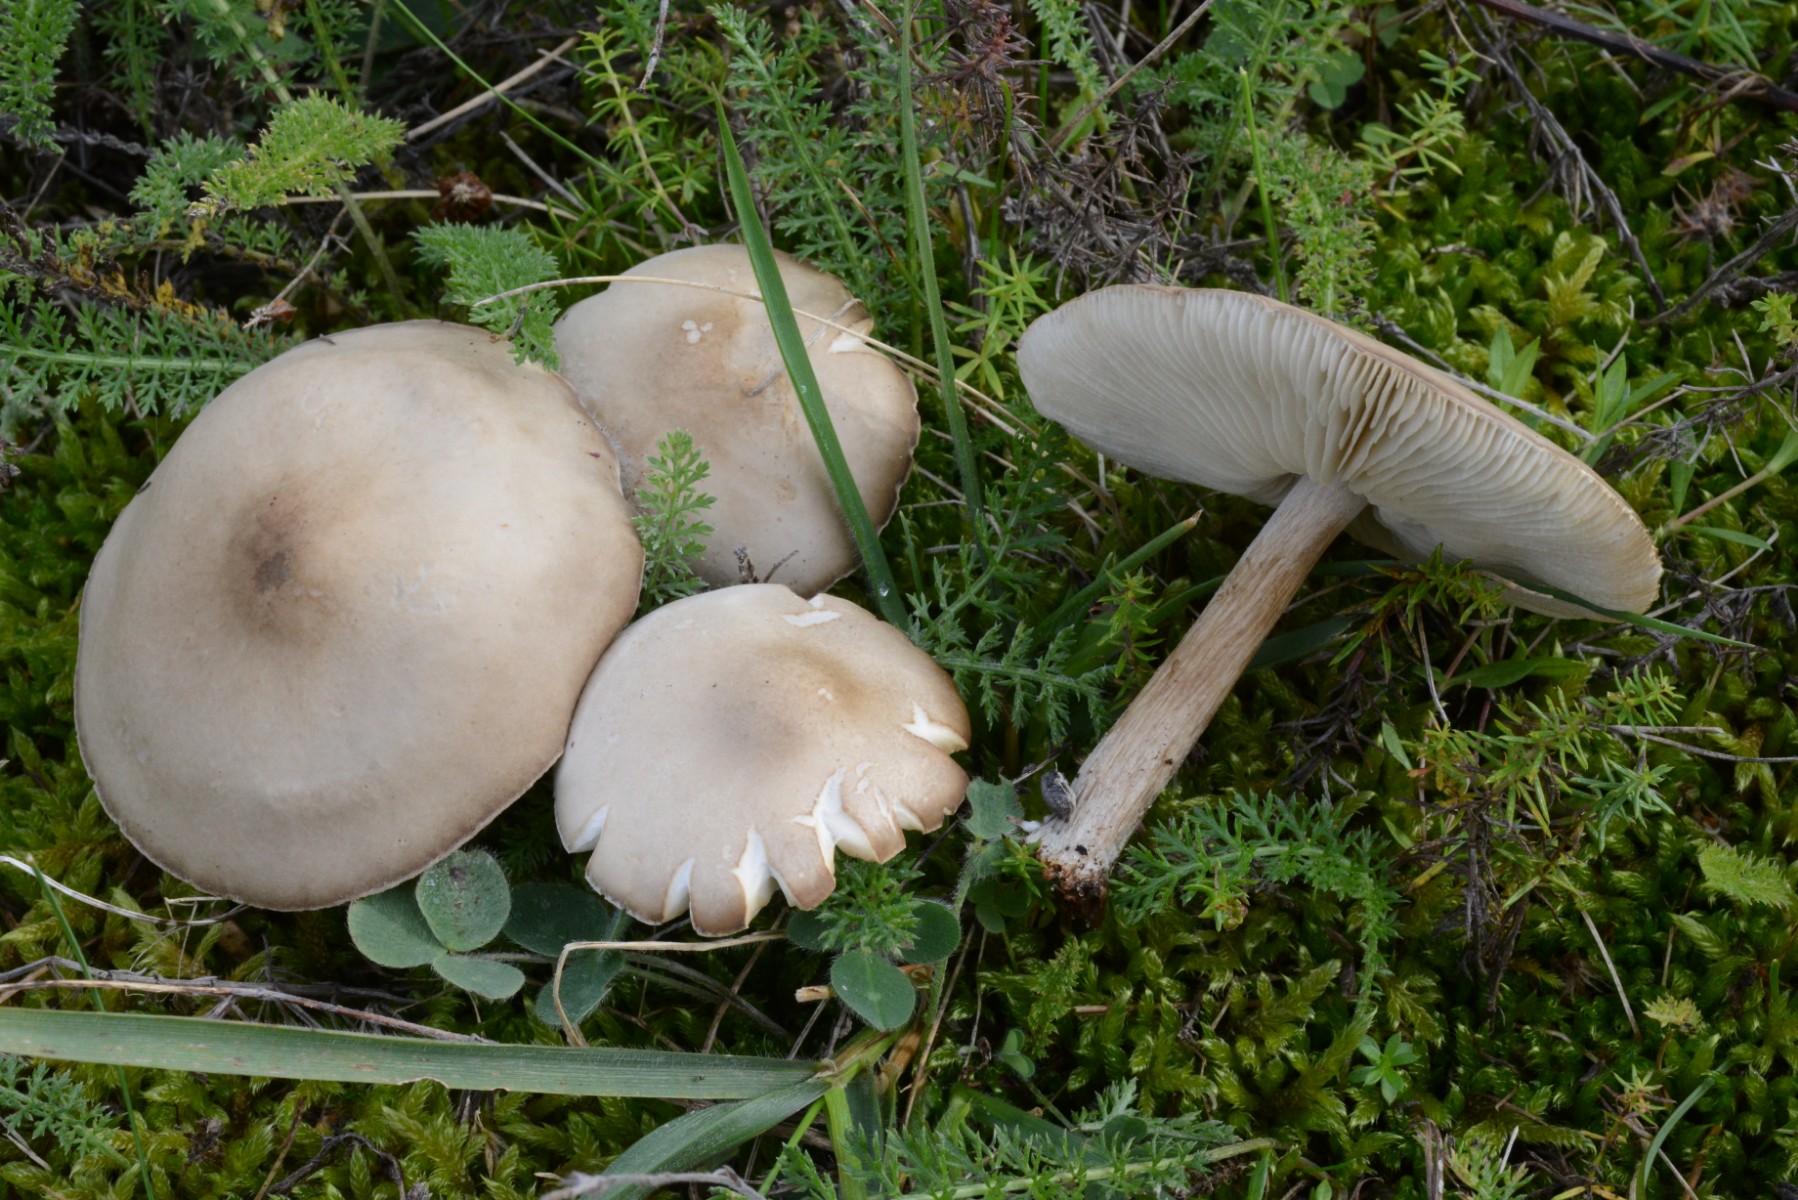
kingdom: Fungi
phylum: Basidiomycota
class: Agaricomycetes
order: Agaricales
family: Tricholomataceae
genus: Melanoleuca
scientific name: Melanoleuca
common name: munkehat
